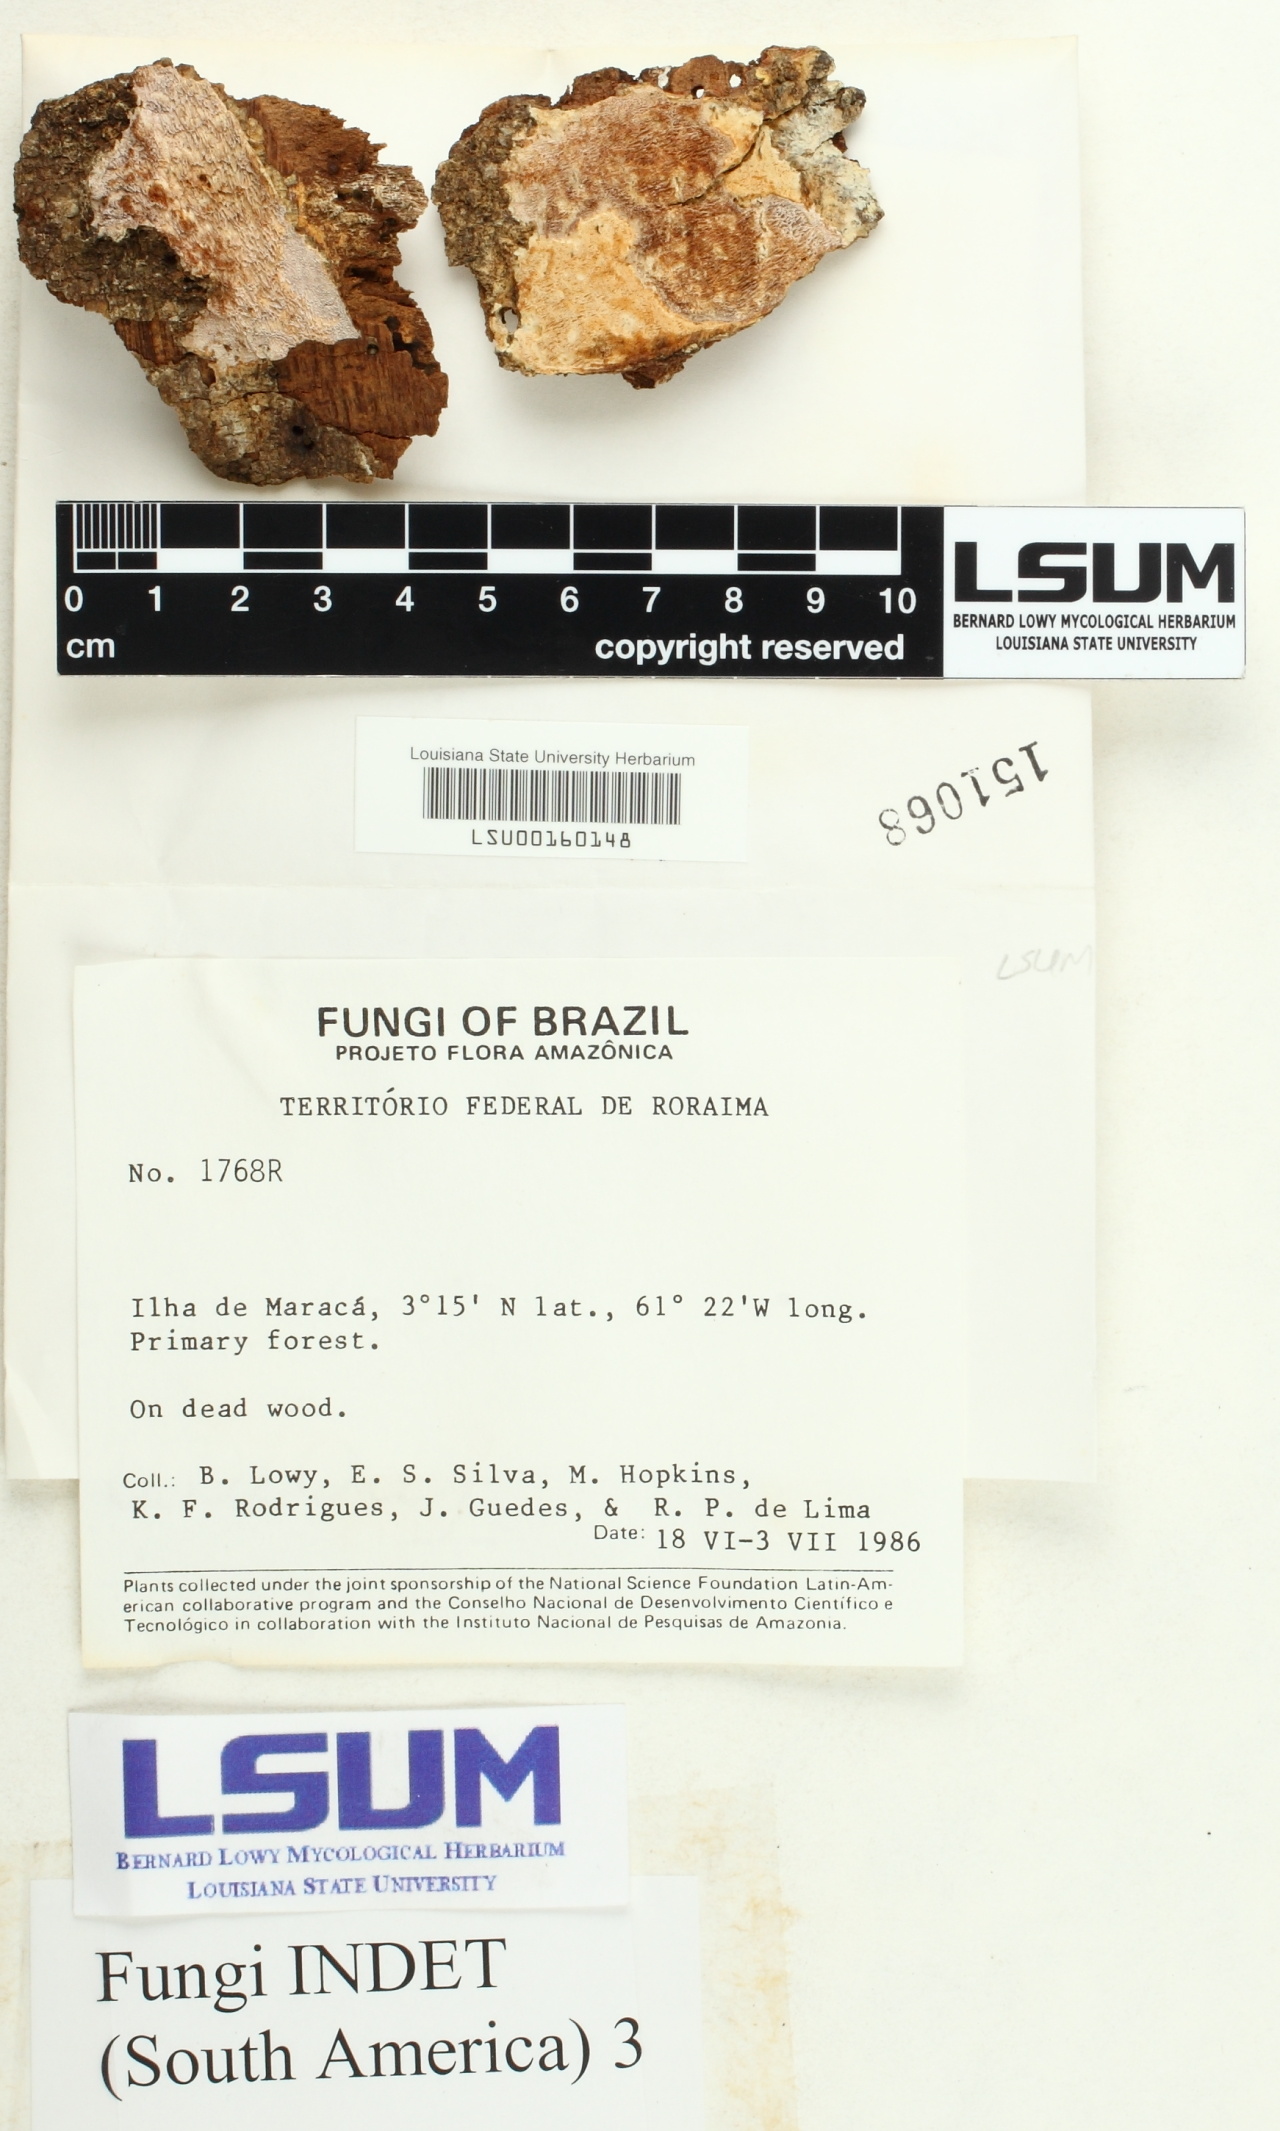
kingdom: Fungi
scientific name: Fungi
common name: Fungi
